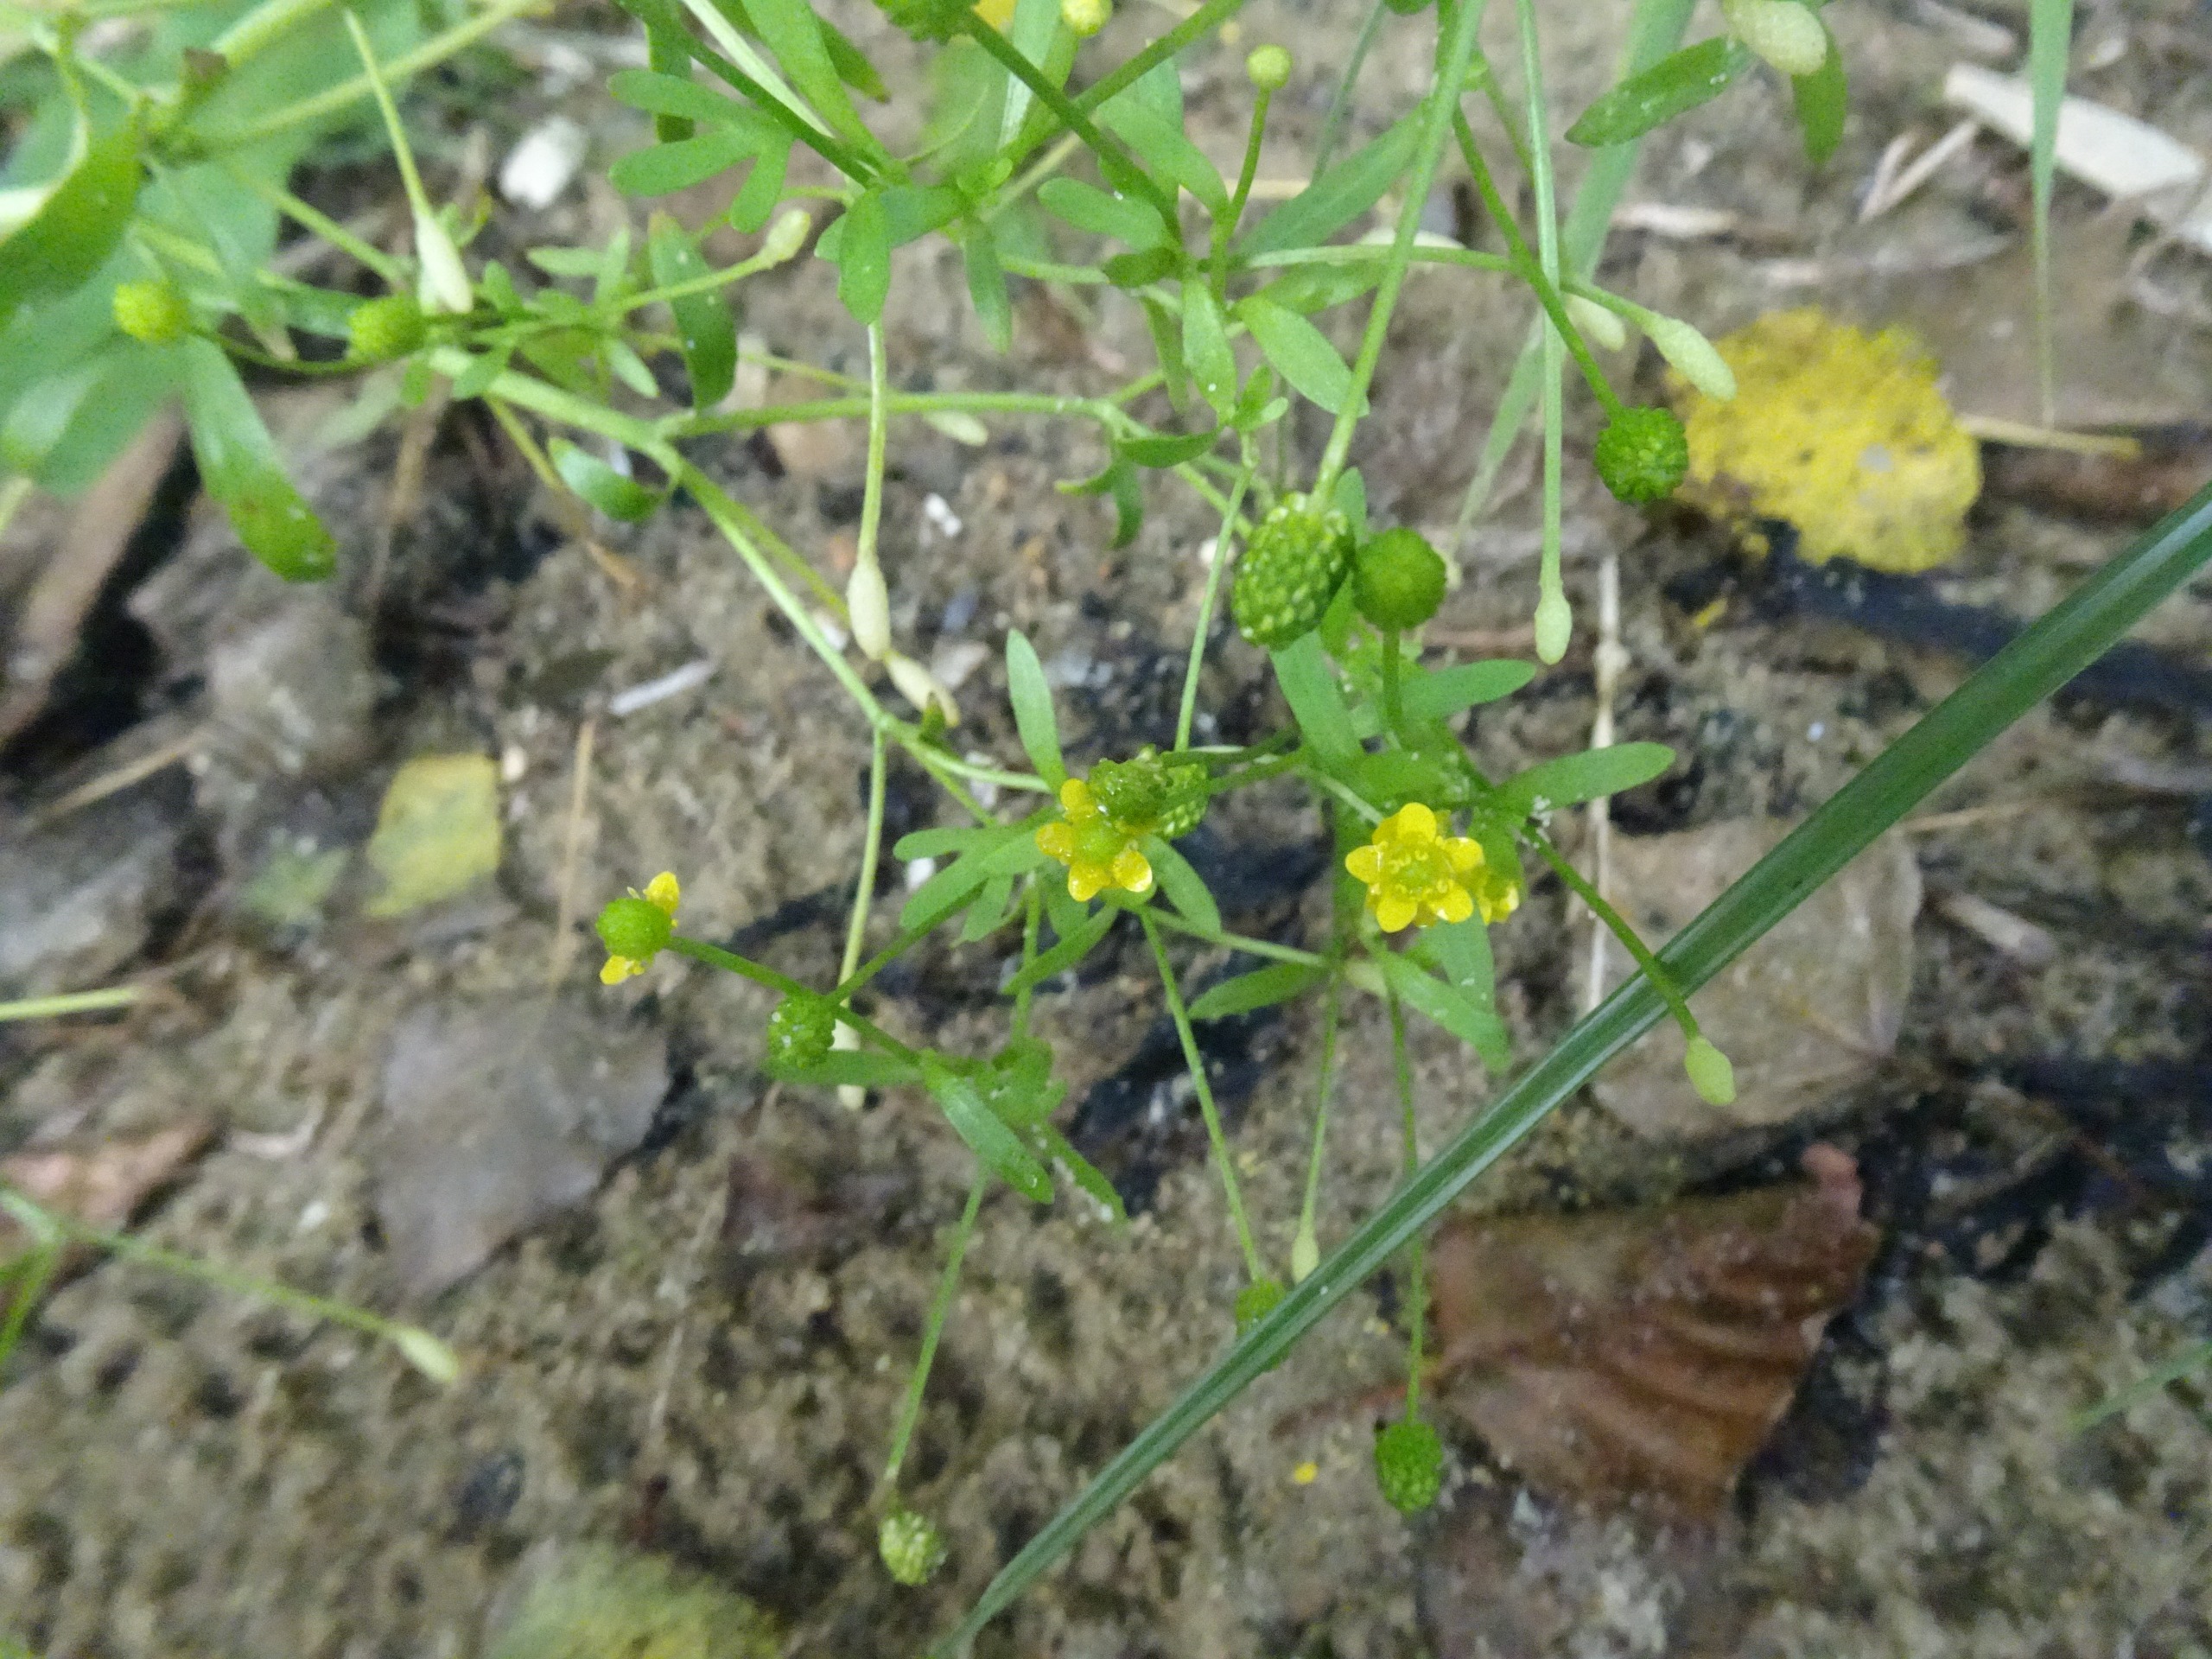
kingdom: Plantae
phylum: Tracheophyta
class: Magnoliopsida
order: Ranunculales
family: Ranunculaceae
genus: Ranunculus
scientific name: Ranunculus sceleratus
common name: Tigger-ranunkel
